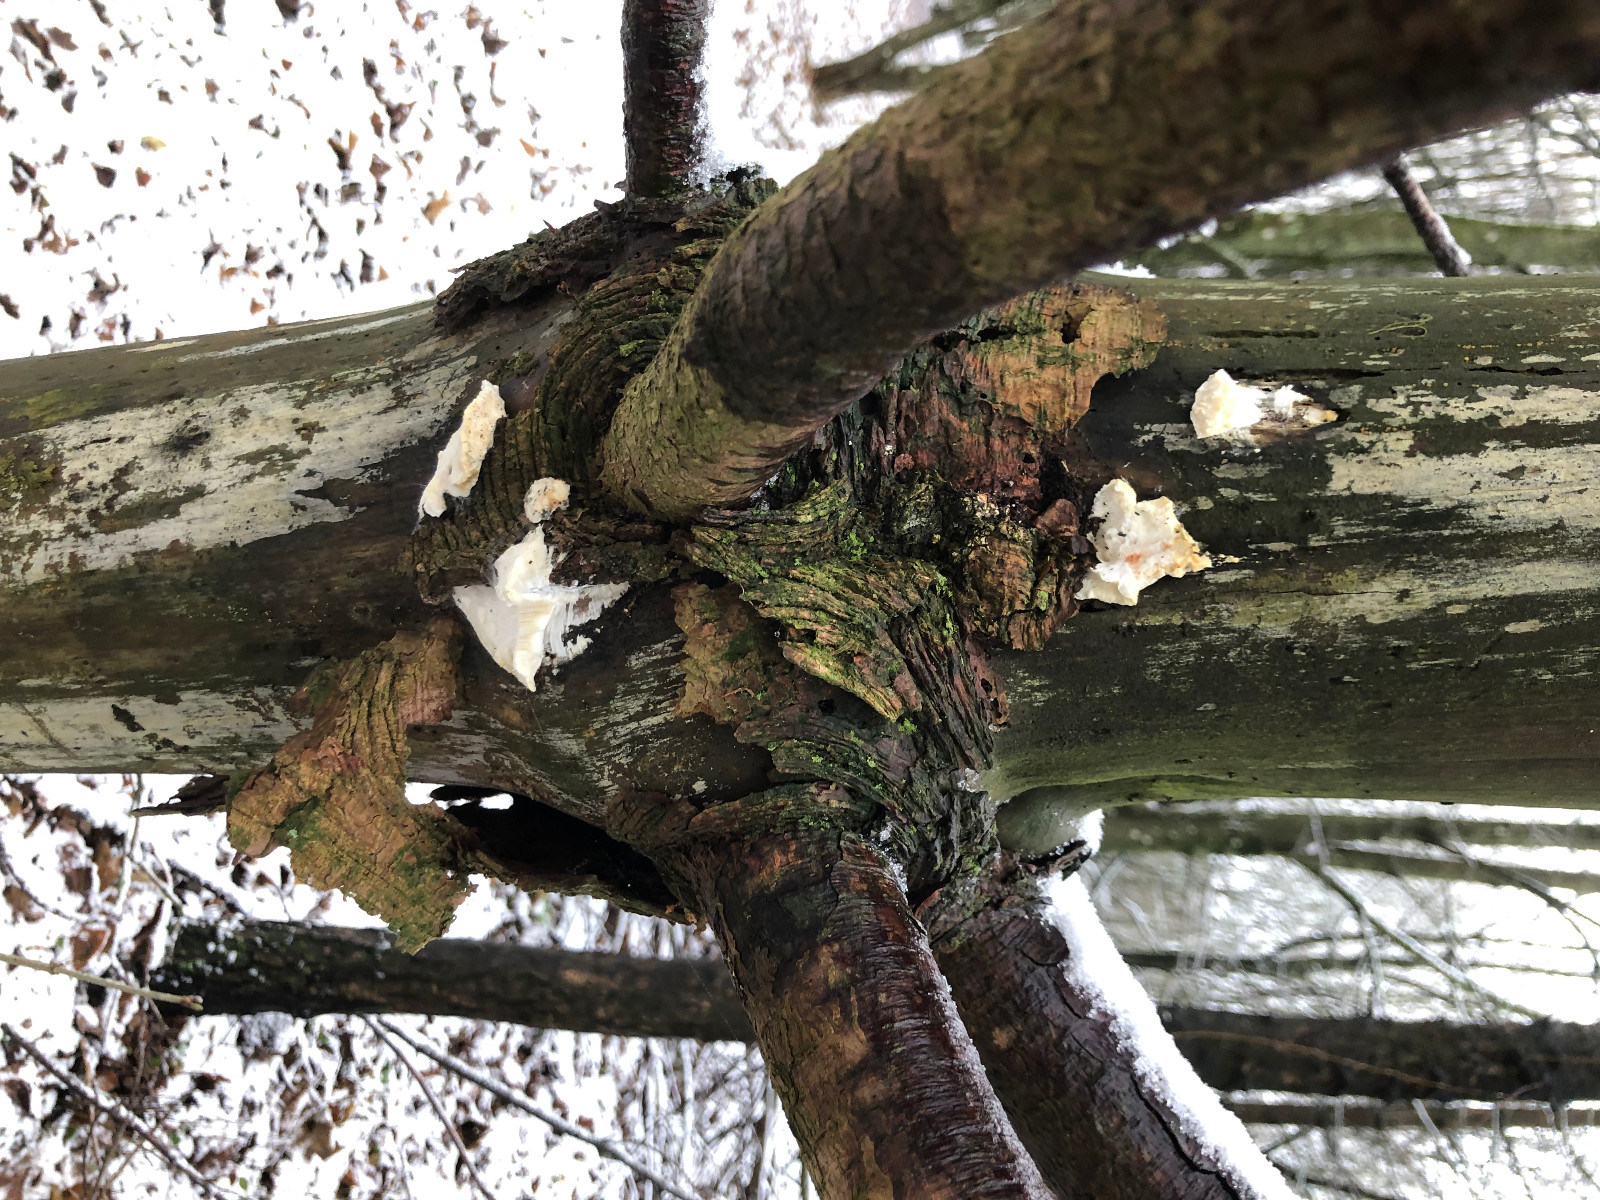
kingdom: Fungi
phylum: Basidiomycota
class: Agaricomycetes
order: Polyporales
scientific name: Polyporales
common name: poresvampordenen
